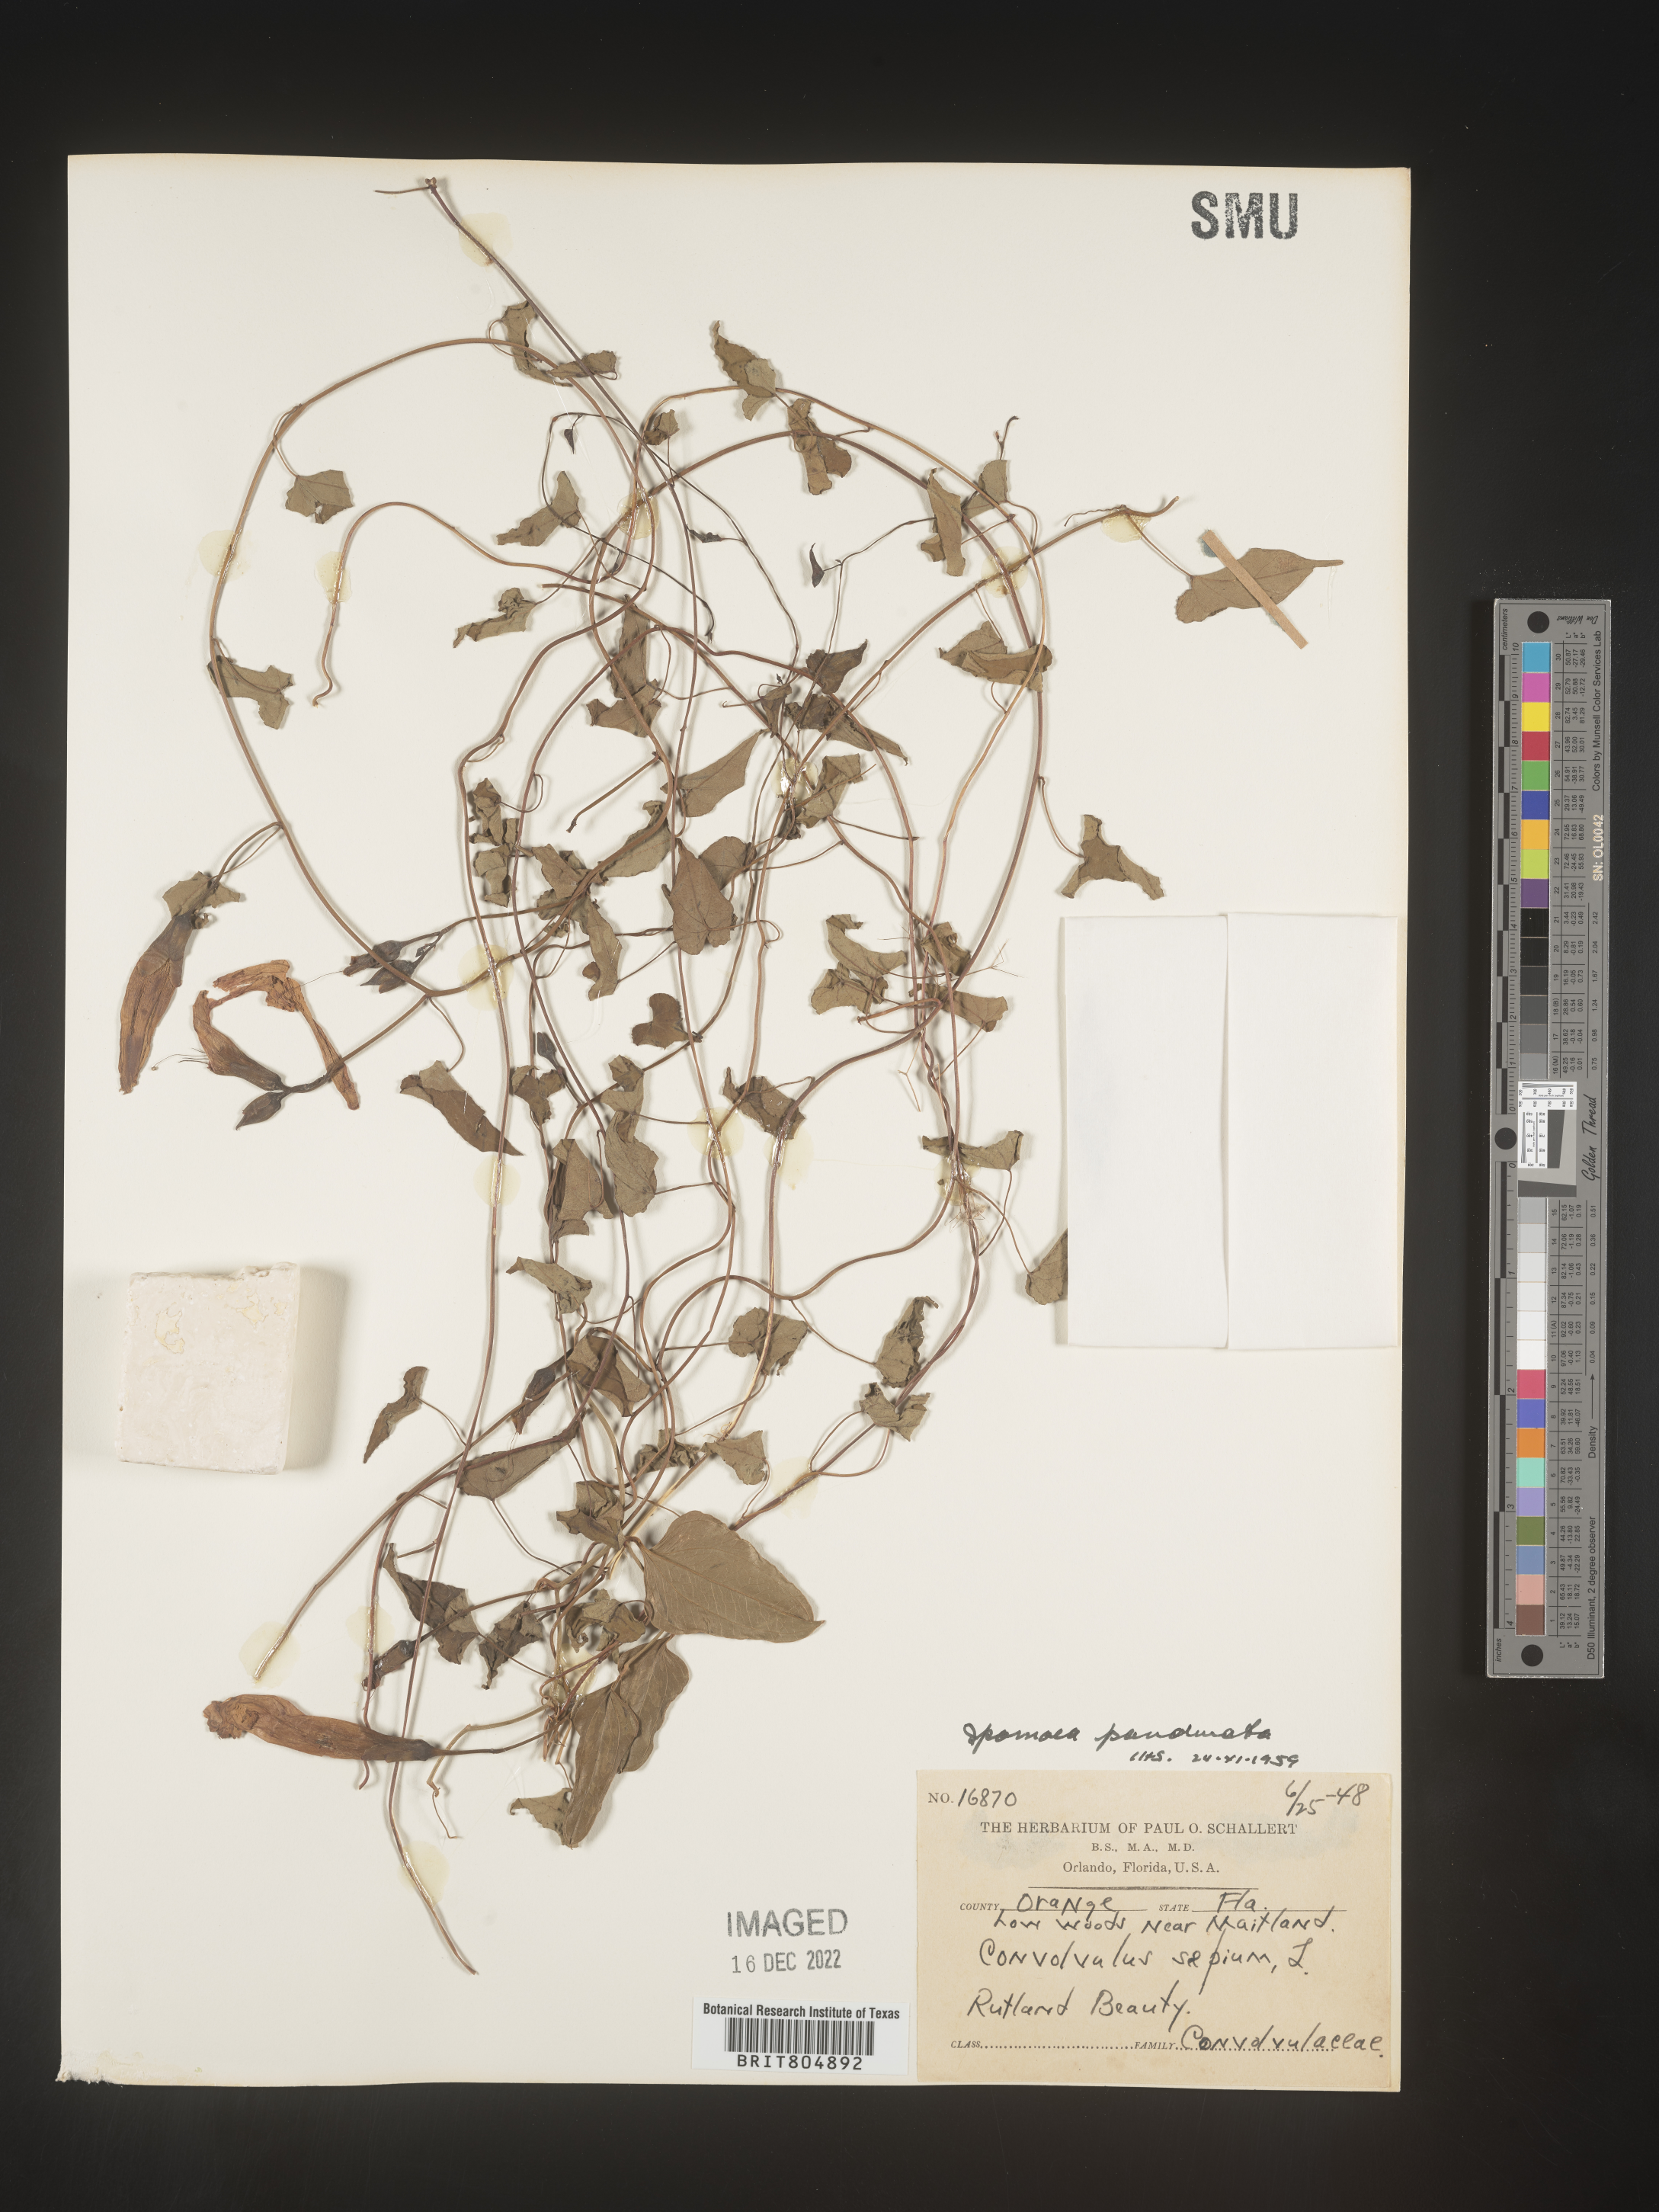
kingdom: Plantae
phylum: Tracheophyta
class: Magnoliopsida
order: Solanales
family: Convolvulaceae
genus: Ipomoea
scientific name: Ipomoea pandurata
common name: Man-of-the-earth
